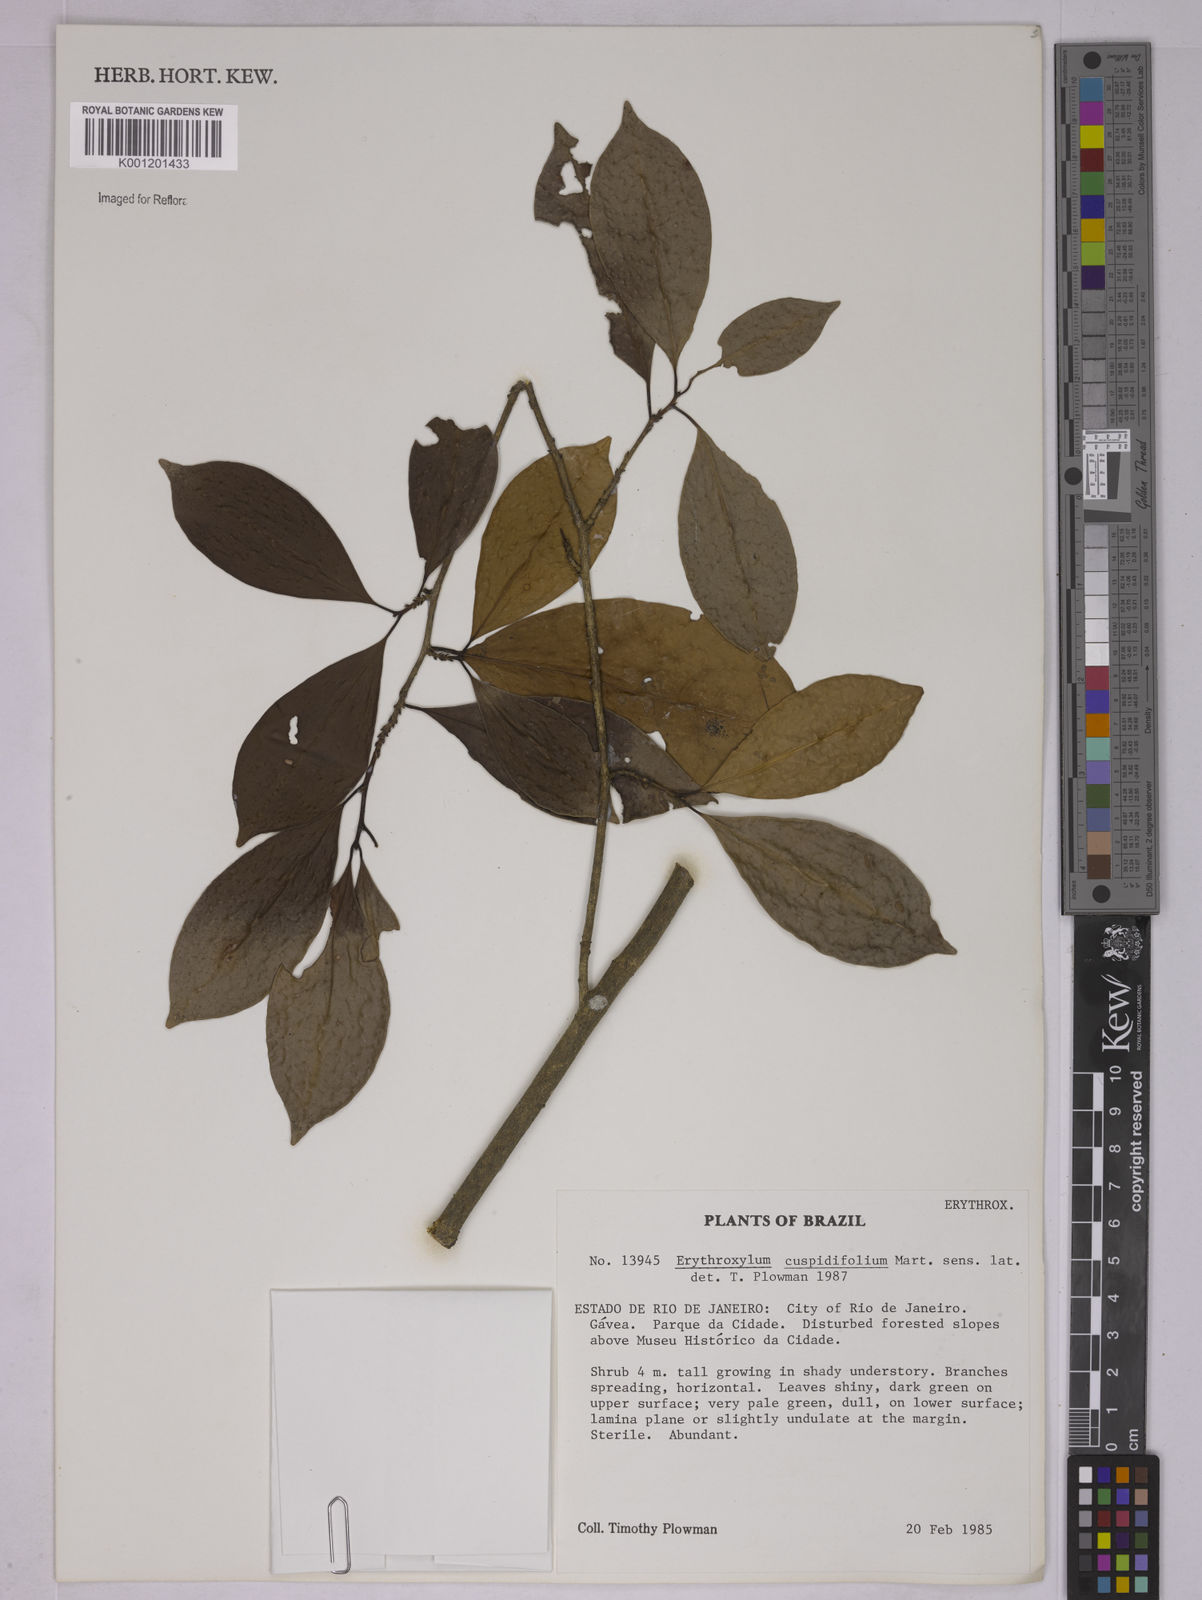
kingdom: Plantae
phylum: Tracheophyta
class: Magnoliopsida
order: Malpighiales
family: Erythroxylaceae
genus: Erythroxylum
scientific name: Erythroxylum cuspidifolium
